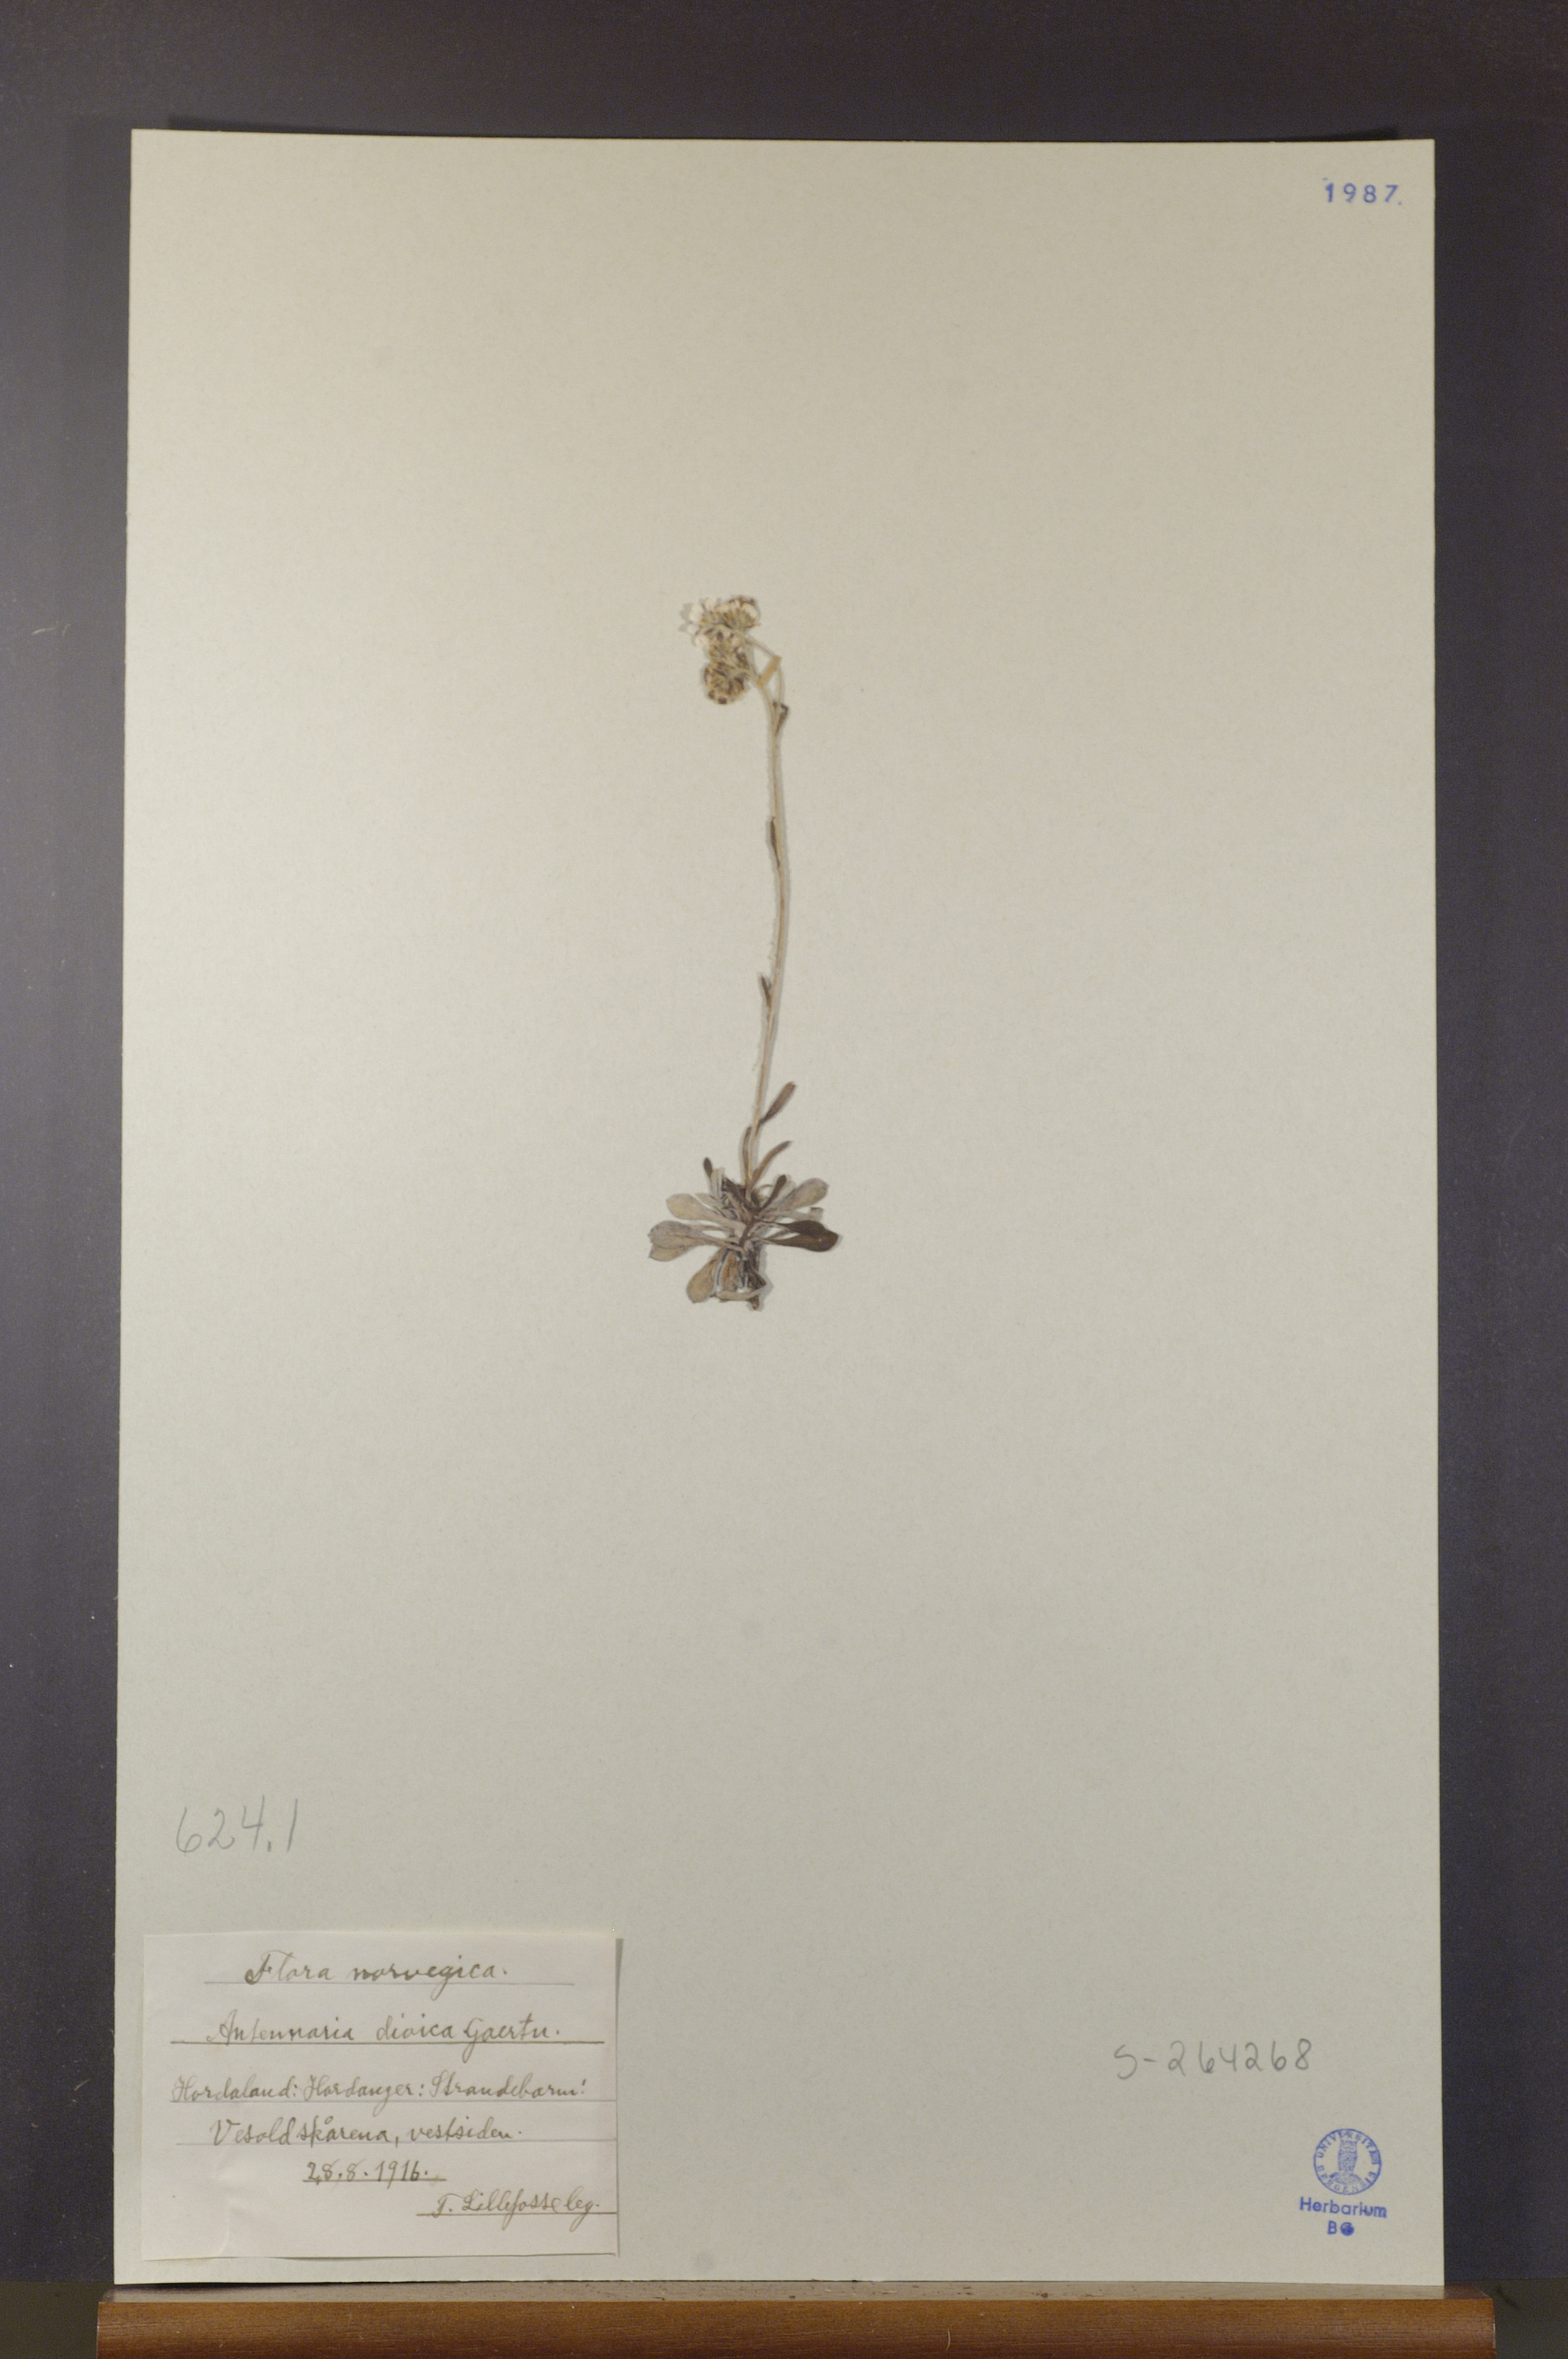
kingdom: Plantae
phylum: Tracheophyta
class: Magnoliopsida
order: Asterales
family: Asteraceae
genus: Antennaria
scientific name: Antennaria dioica
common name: Mountain everlasting
